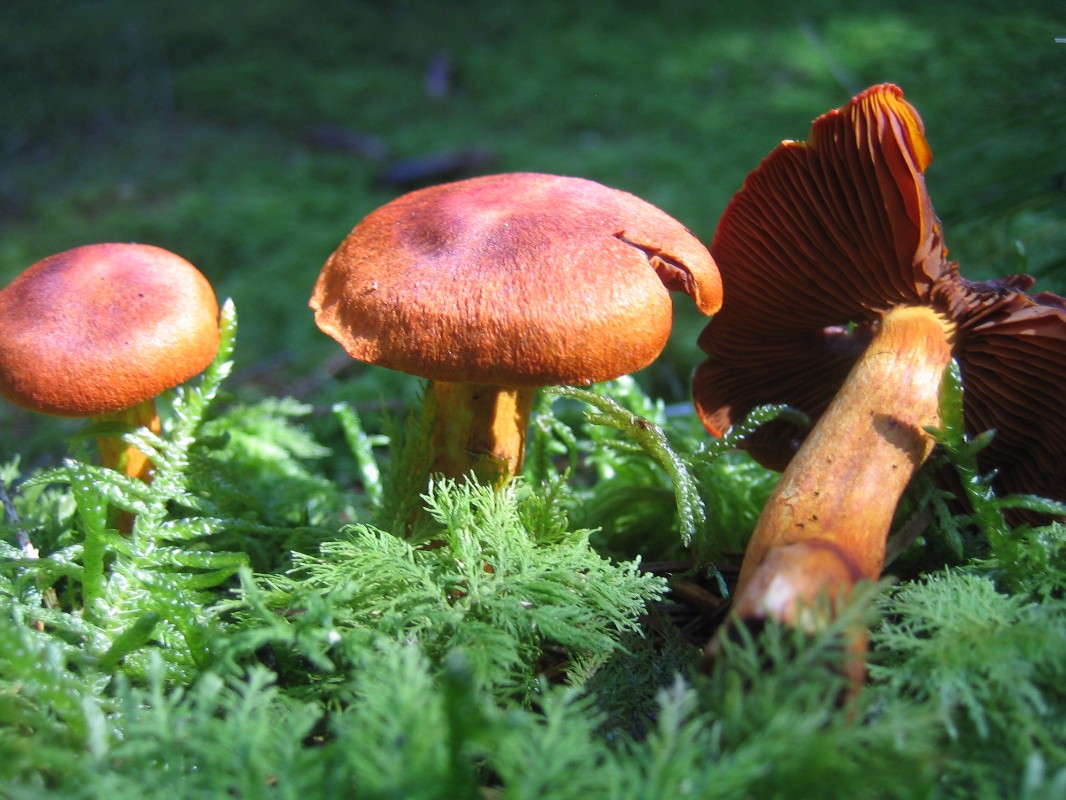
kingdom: Fungi
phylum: Basidiomycota
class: Agaricomycetes
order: Agaricales
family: Cortinariaceae
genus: Cortinarius
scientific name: Cortinarius purpureus
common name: brunrød slørhat
